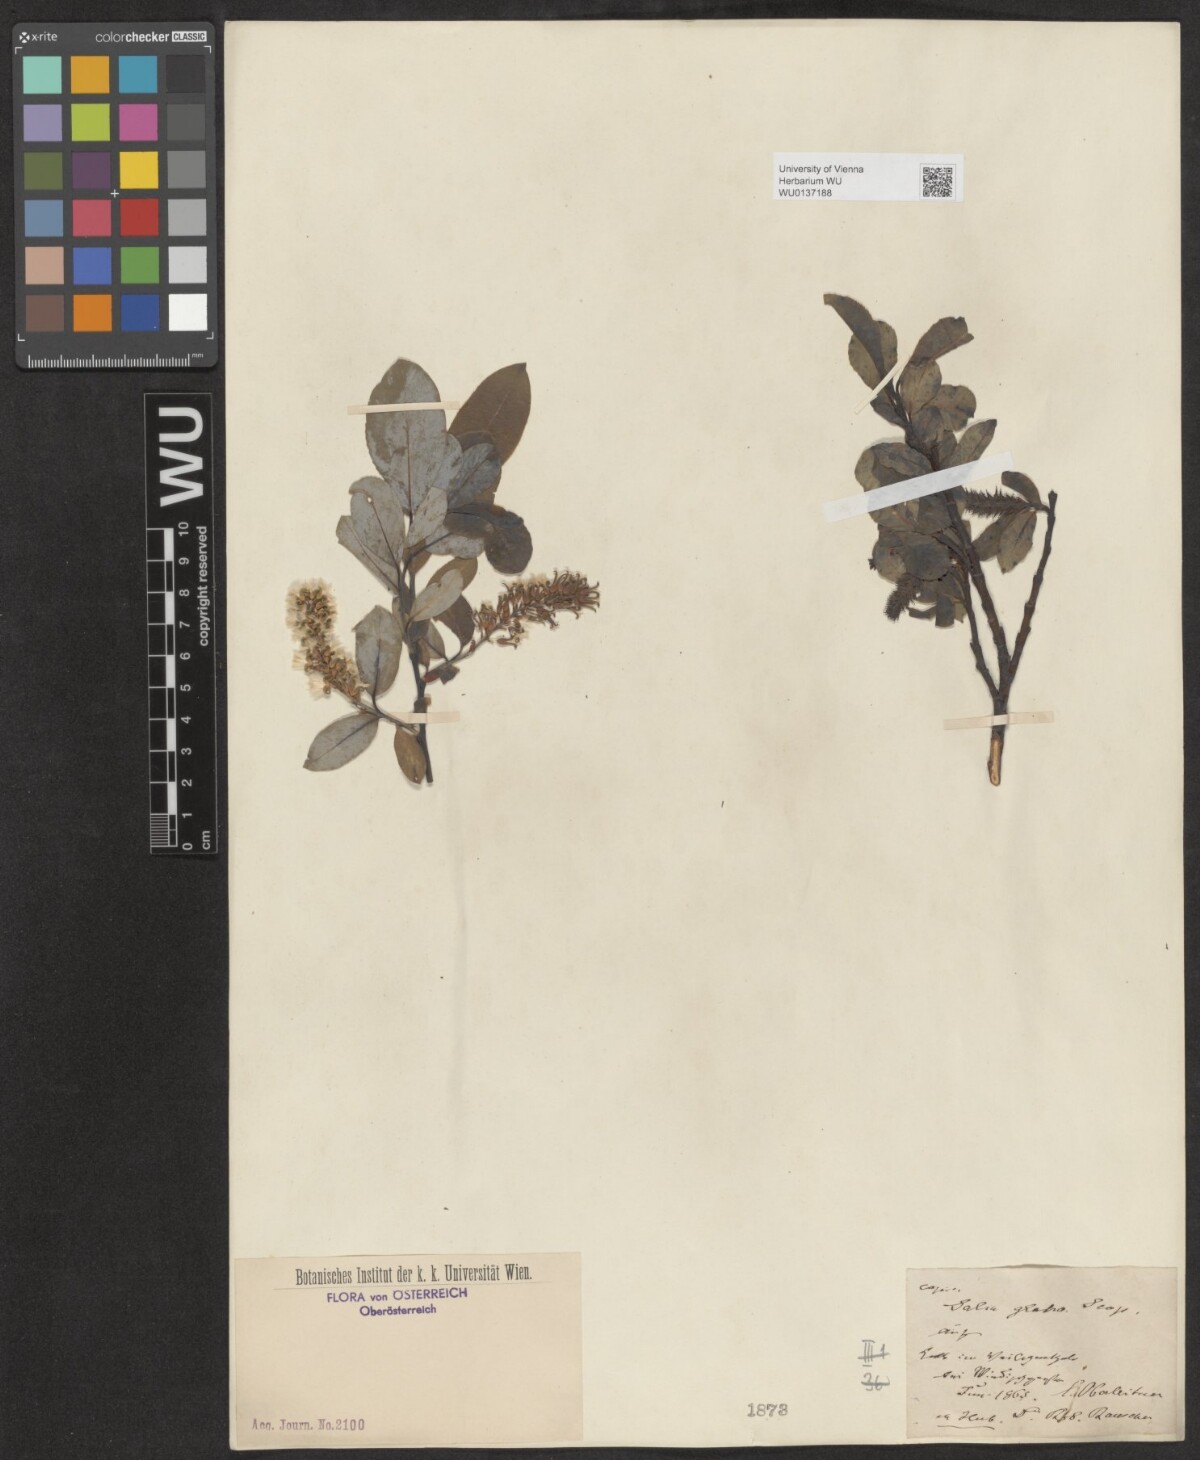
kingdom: Plantae
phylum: Tracheophyta
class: Magnoliopsida
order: Malpighiales
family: Salicaceae
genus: Salix
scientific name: Salix glabra
